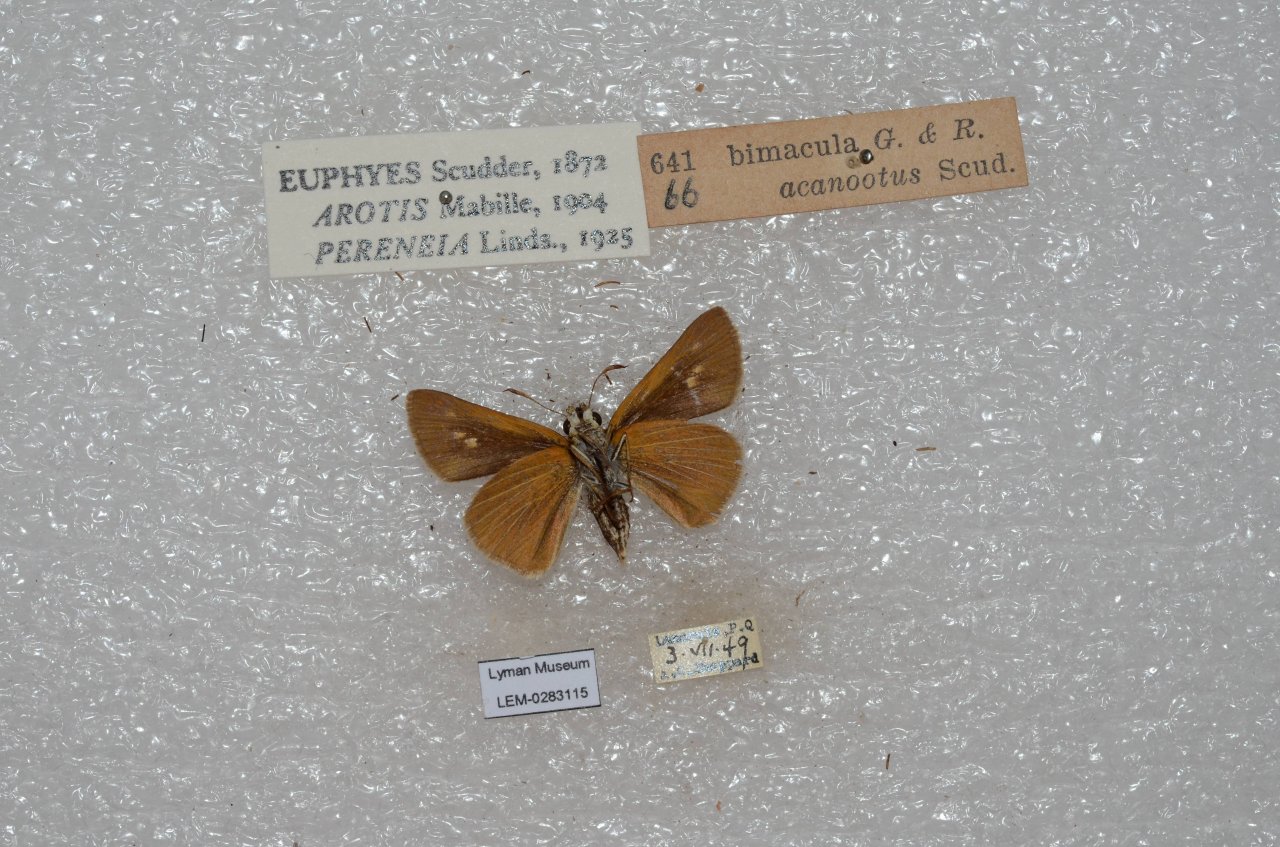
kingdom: Animalia
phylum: Arthropoda
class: Insecta
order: Lepidoptera
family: Hesperiidae
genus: Euphyes
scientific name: Euphyes bimacula
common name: Two-spotted Skipper
